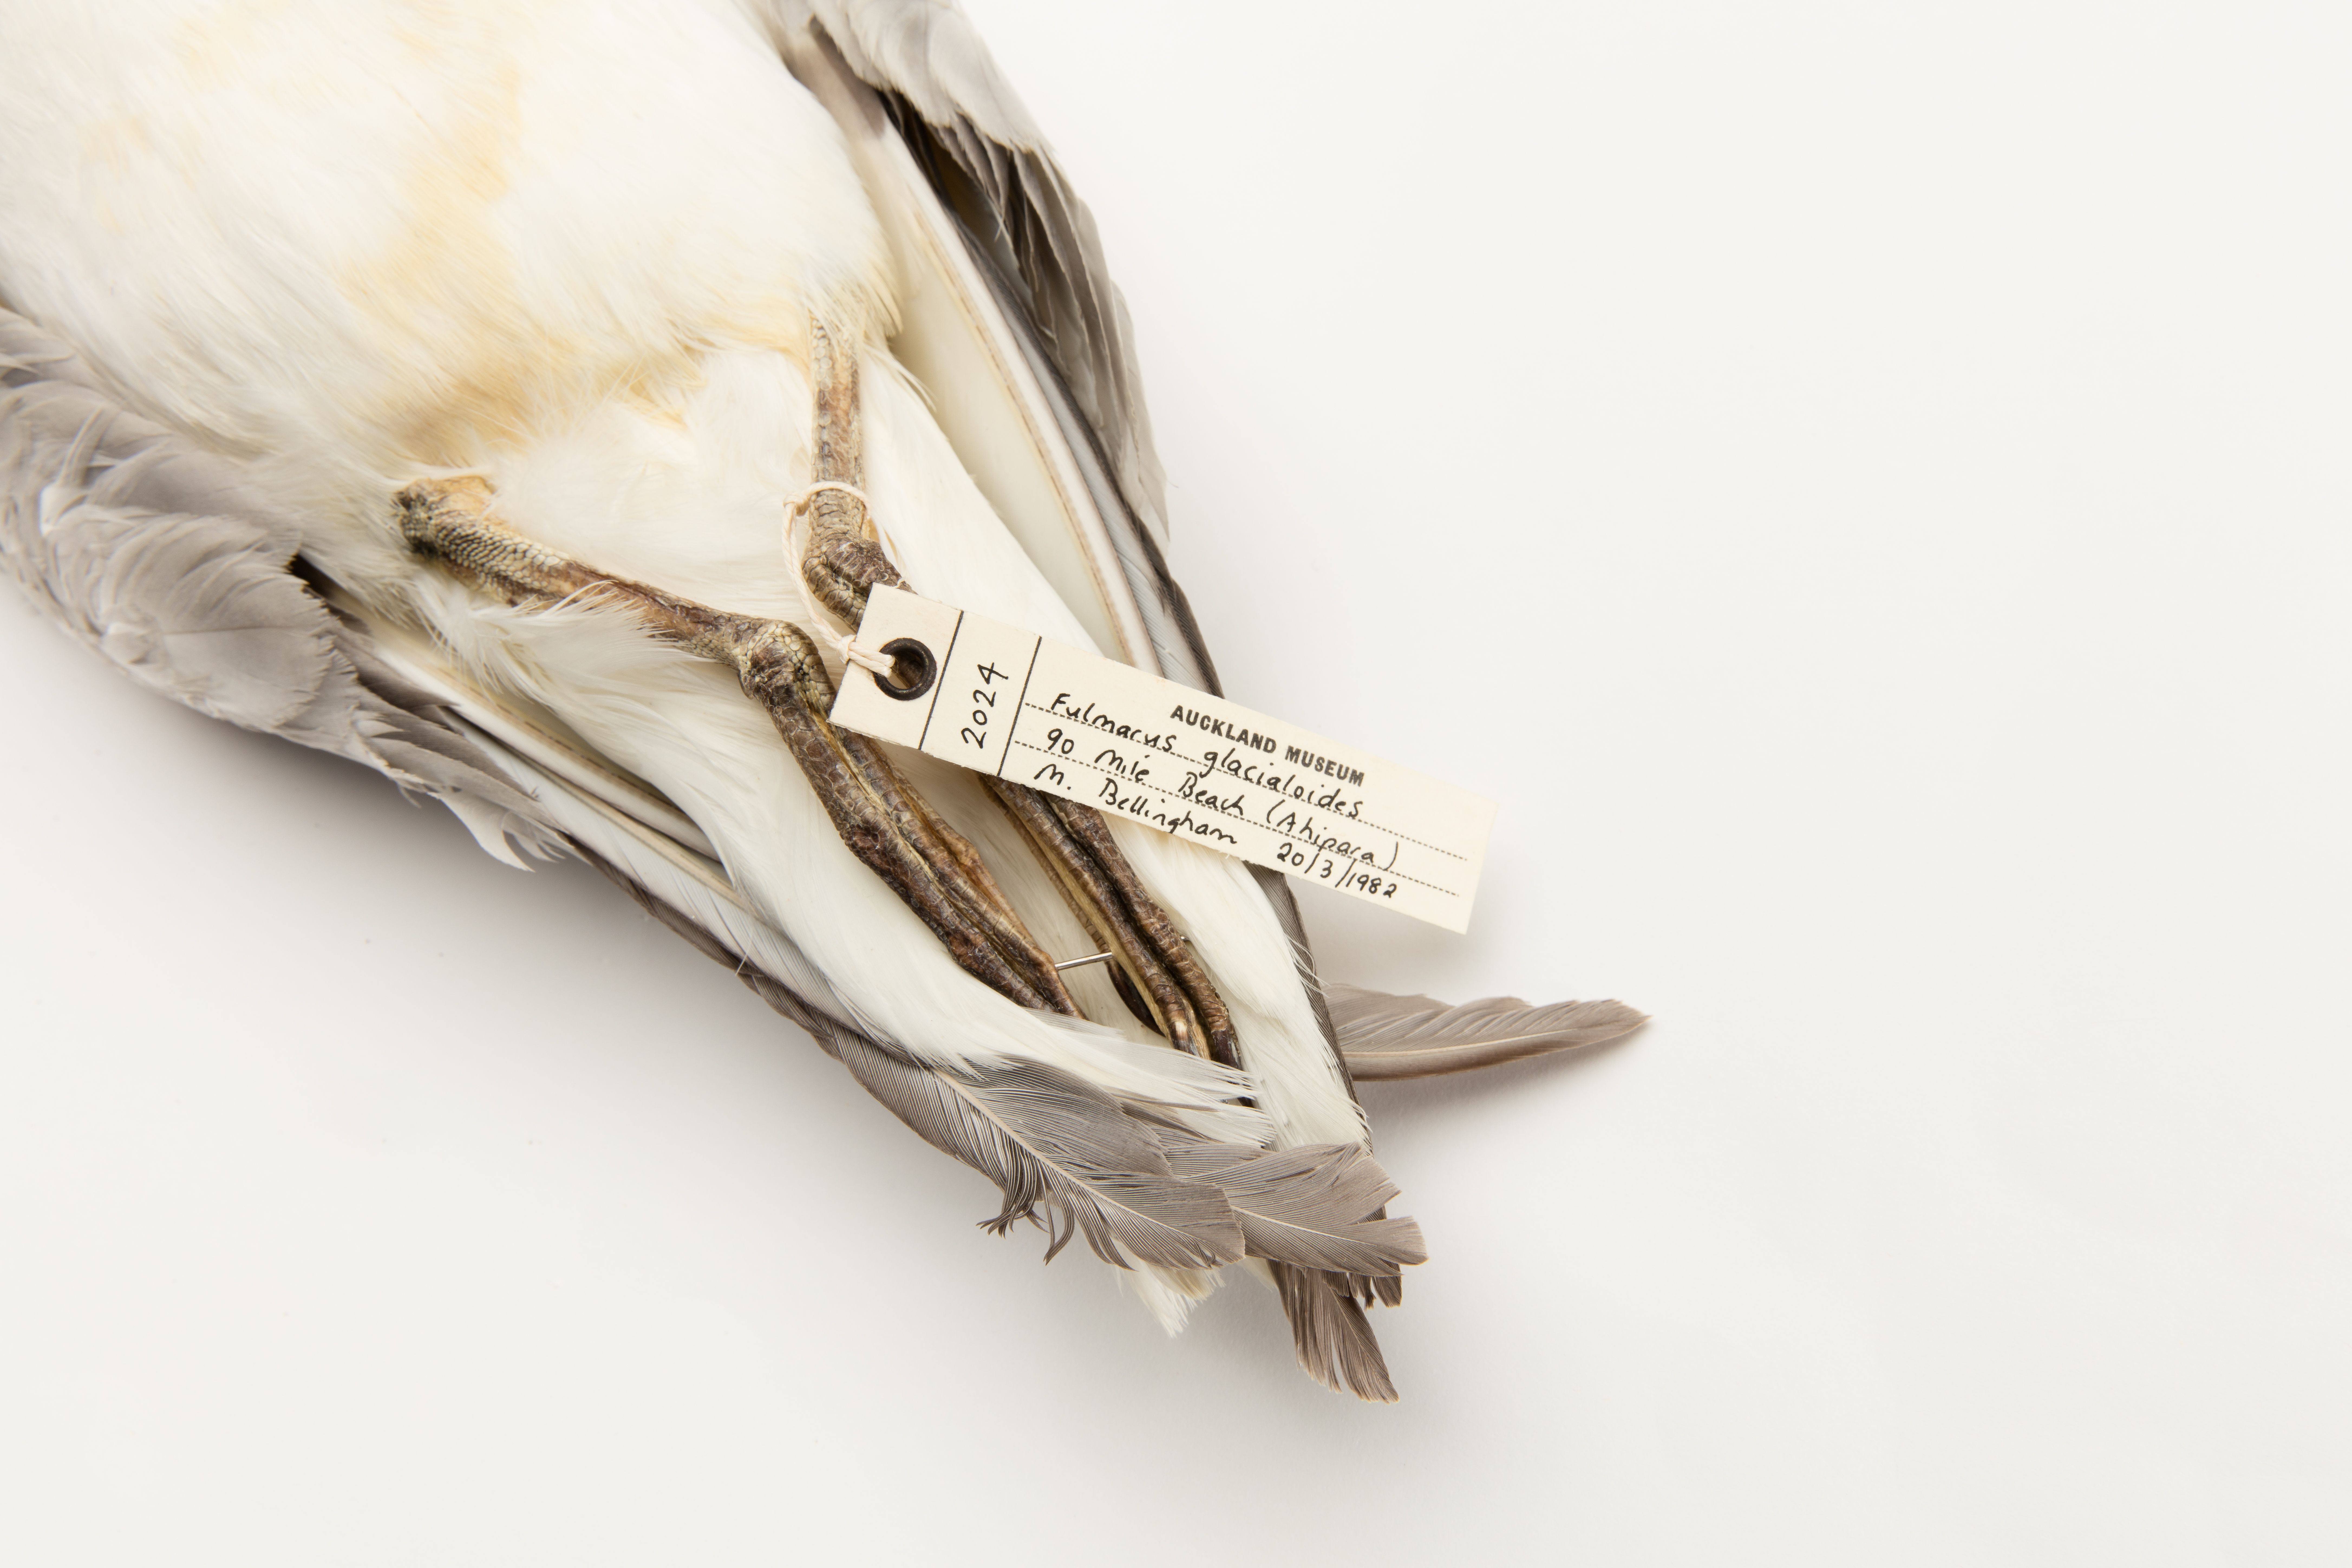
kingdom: Animalia
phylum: Chordata
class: Aves
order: Procellariiformes
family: Procellariidae
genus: Fulmarus
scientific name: Fulmarus glacialoides
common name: Southern fulmar
